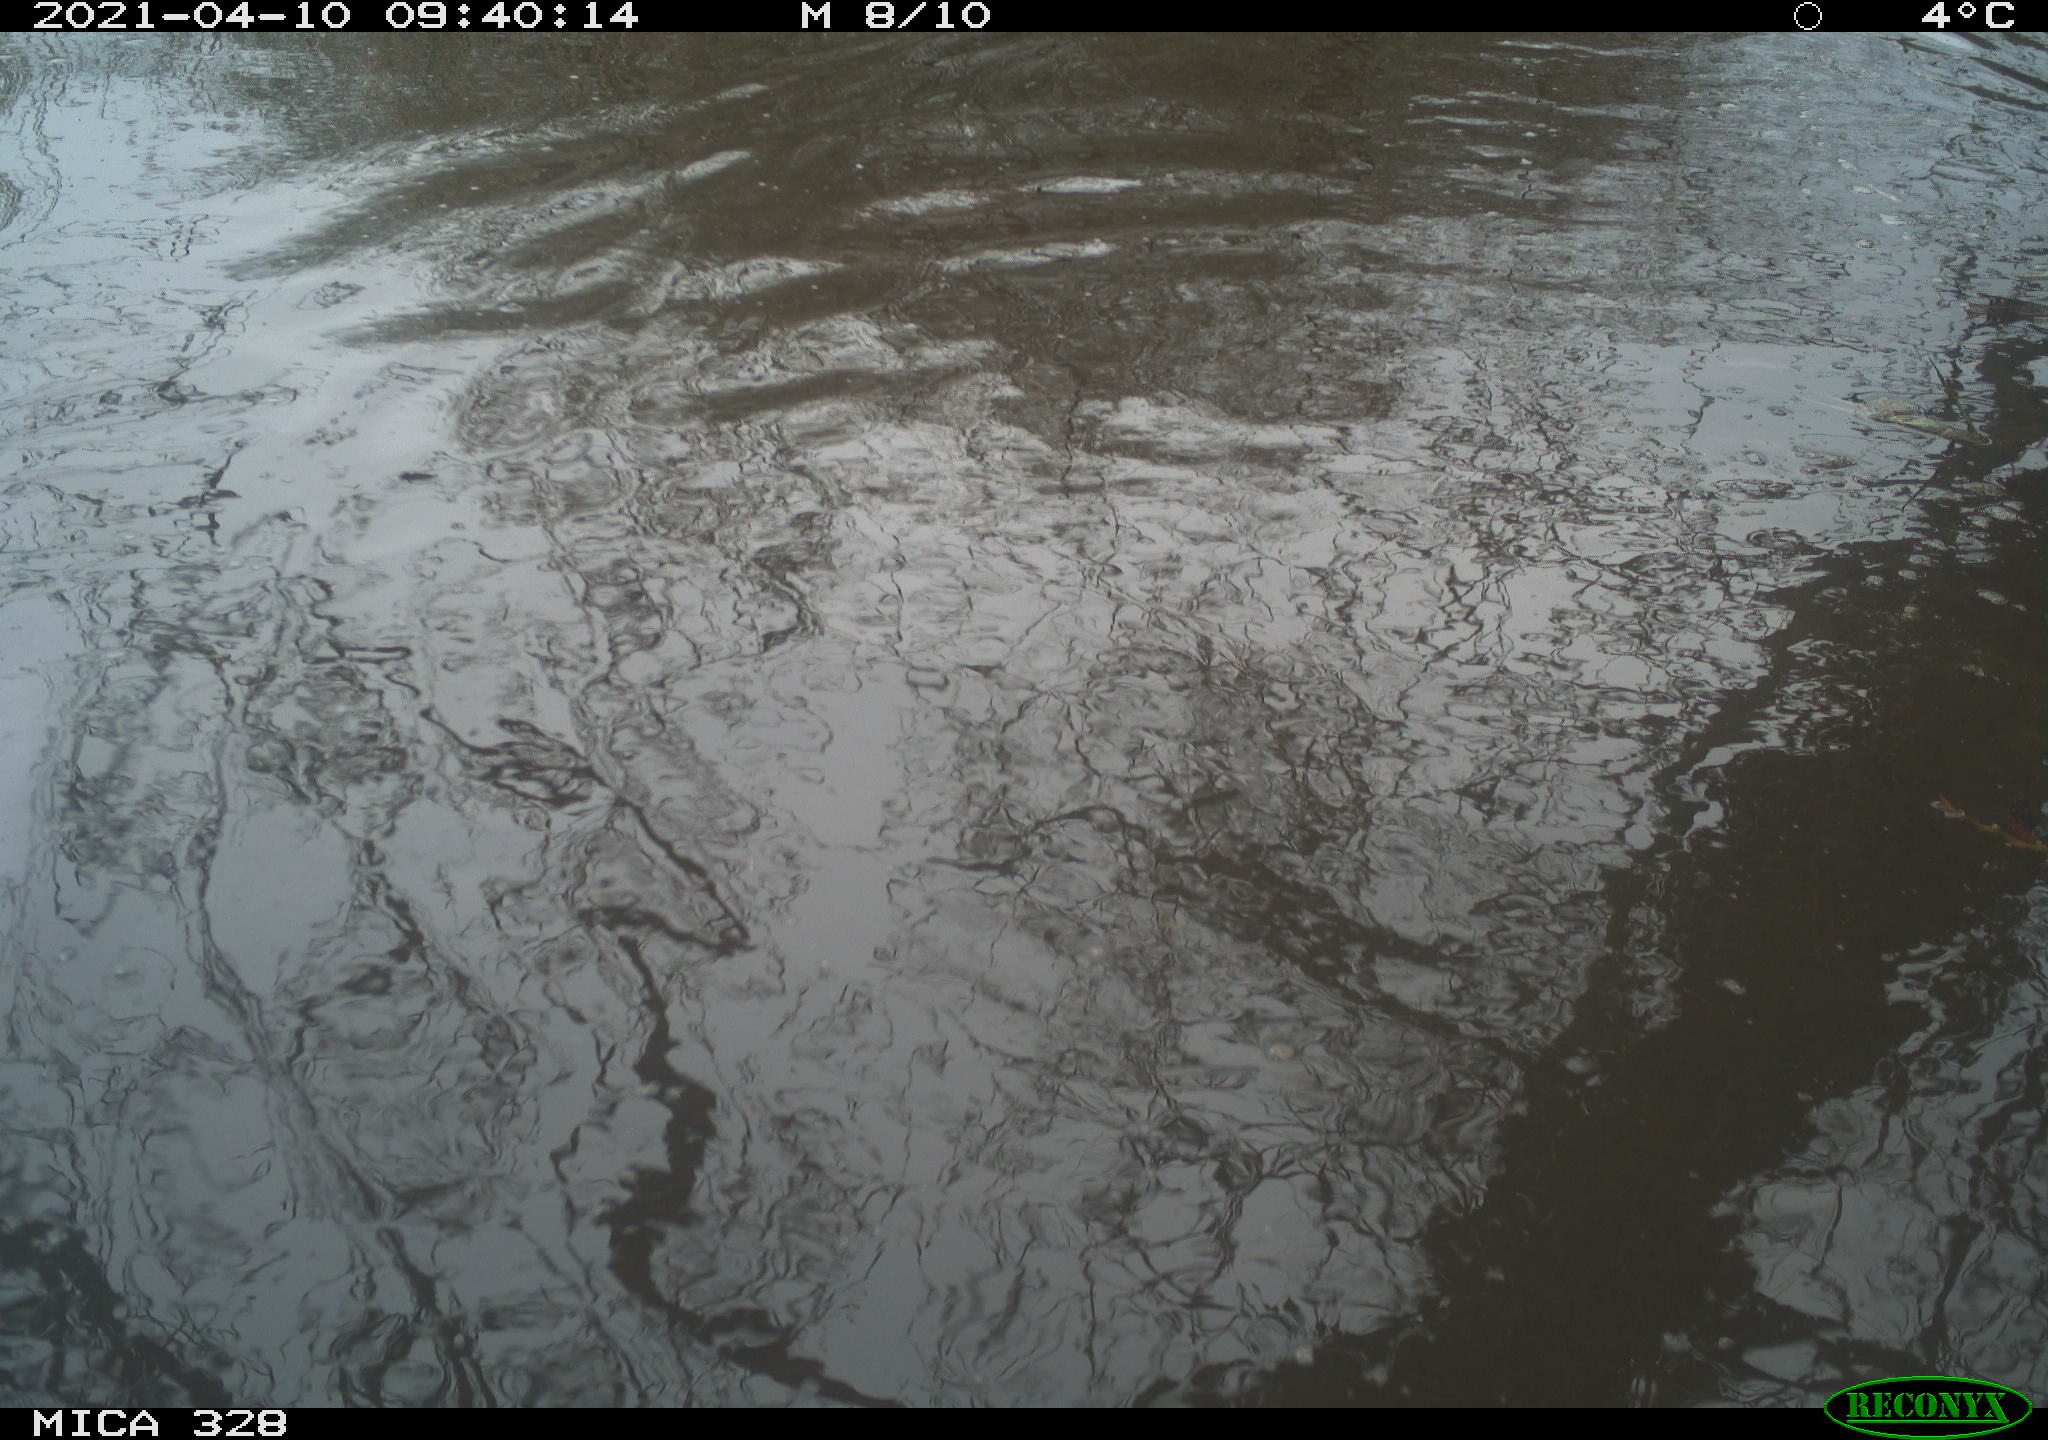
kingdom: Animalia
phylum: Chordata
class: Mammalia
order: Rodentia
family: Cricetidae
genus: Ondatra
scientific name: Ondatra zibethicus
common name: Muskrat
